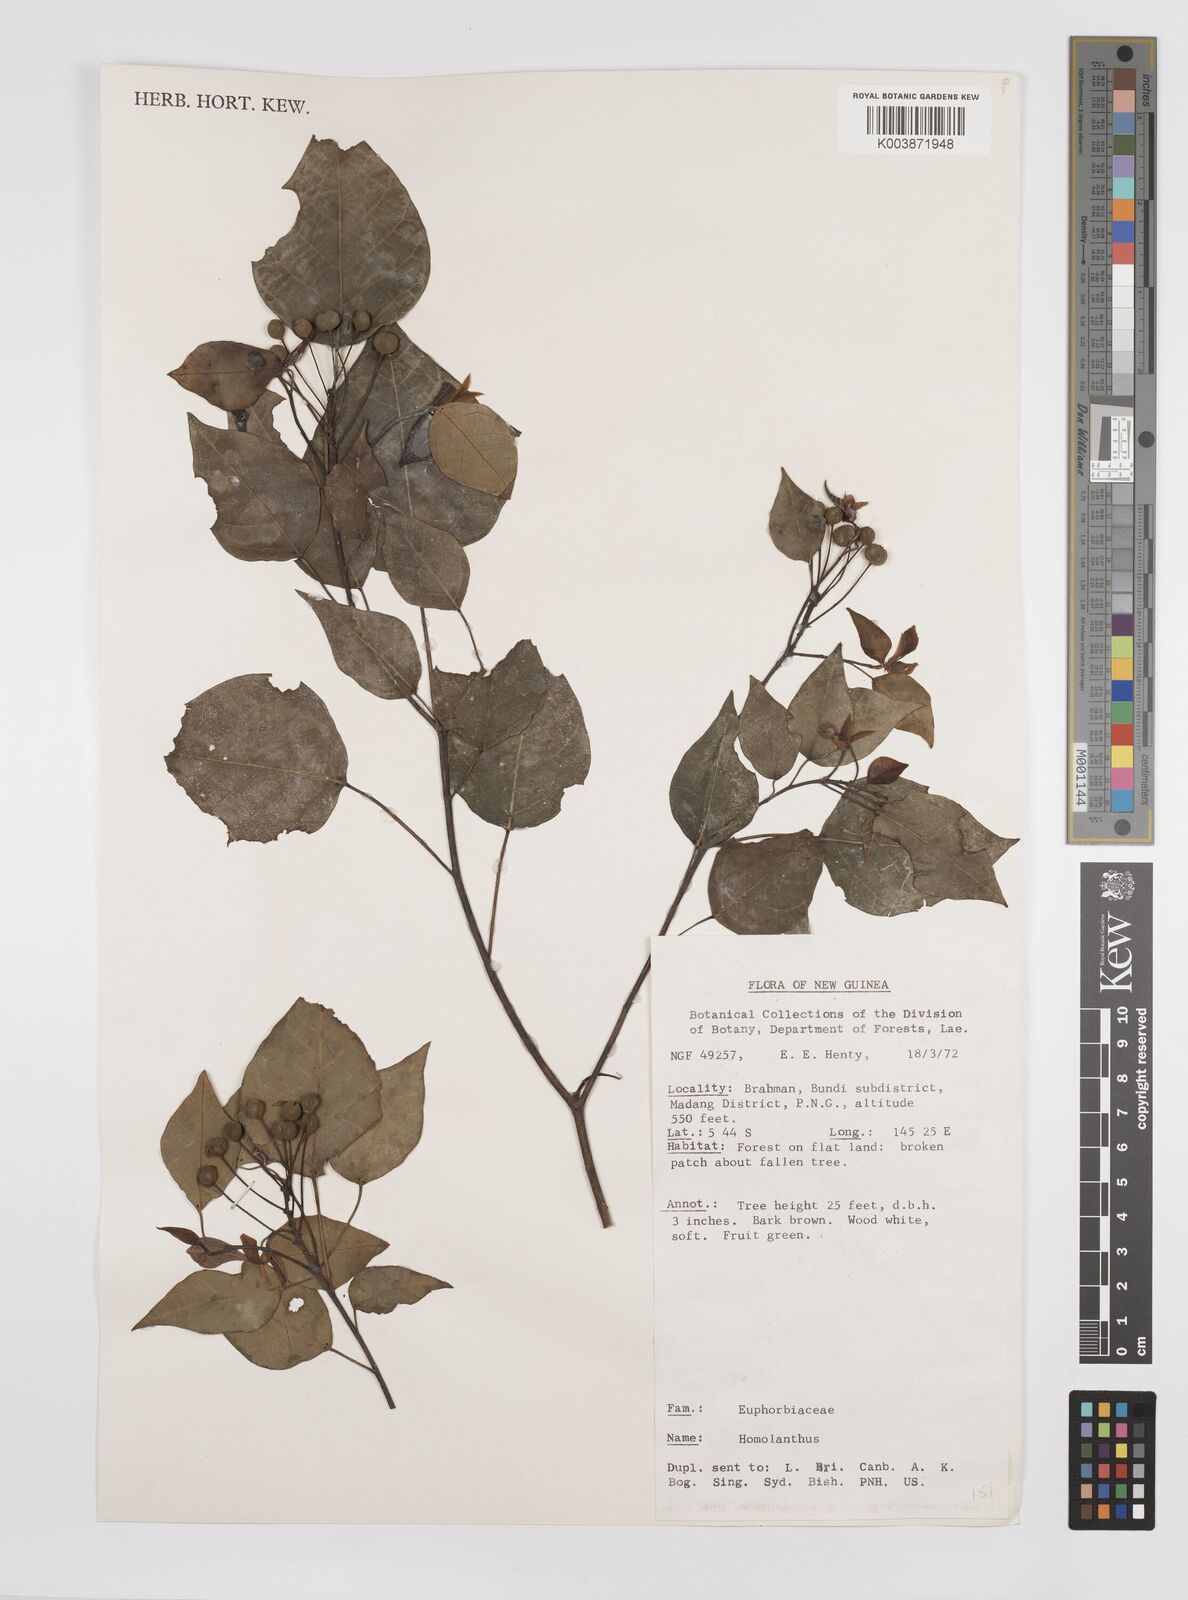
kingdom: Plantae
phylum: Tracheophyta
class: Magnoliopsida
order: Malpighiales
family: Euphorbiaceae
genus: Homalanthus
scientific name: Homalanthus novoguineensis
